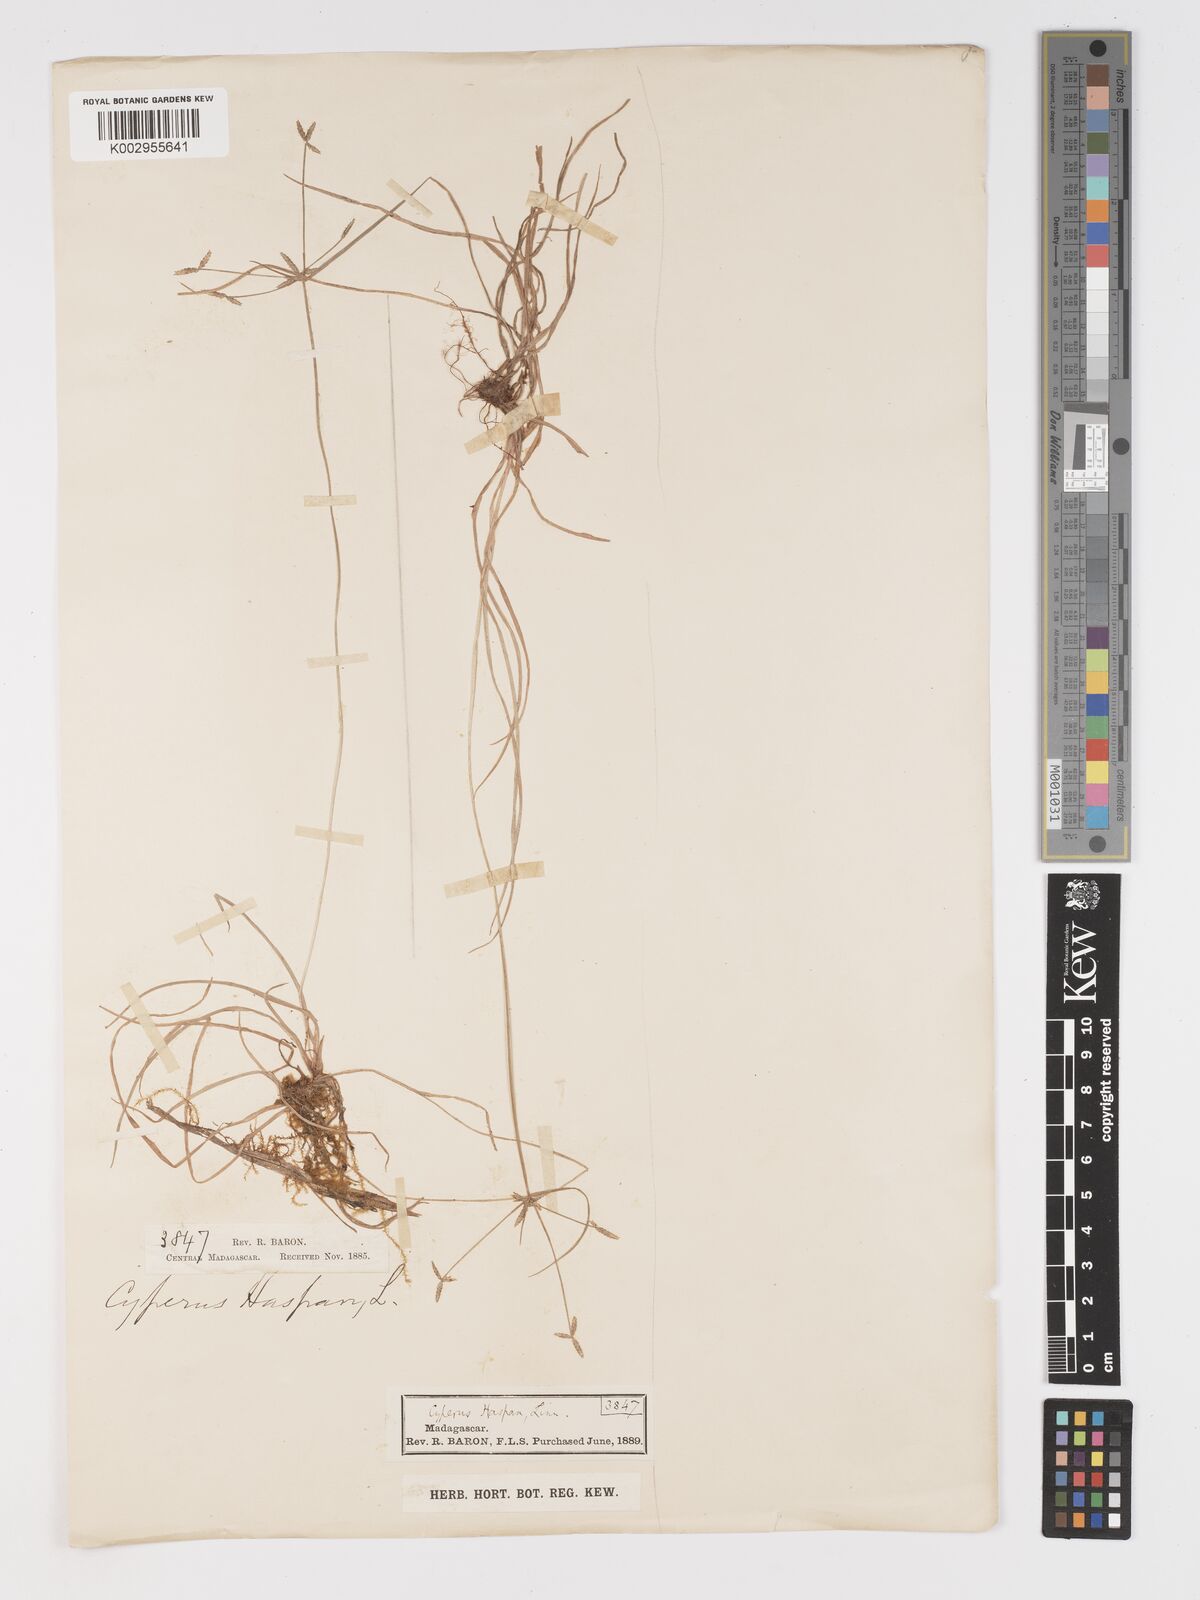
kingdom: Plantae
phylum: Tracheophyta
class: Liliopsida
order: Poales
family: Cyperaceae
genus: Cyperus
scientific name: Cyperus haspan
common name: Haspan flatsedge
